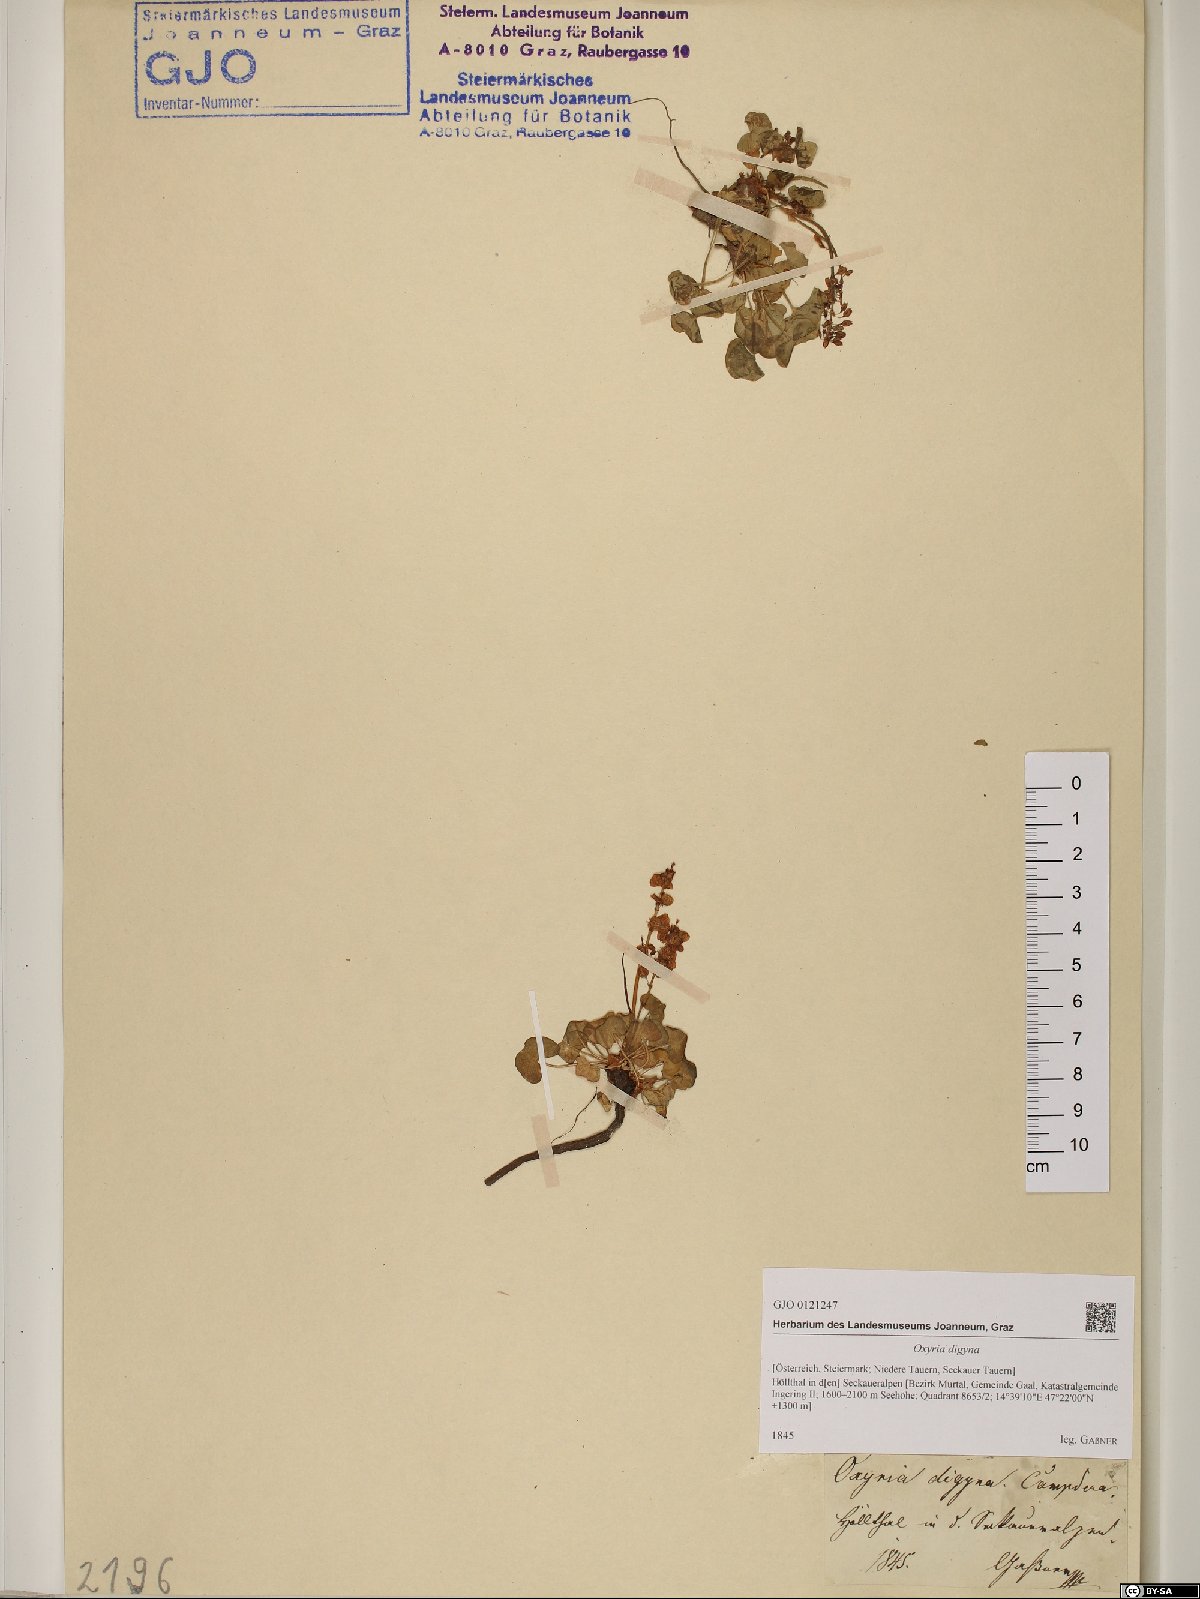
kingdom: Plantae
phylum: Tracheophyta
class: Magnoliopsida
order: Caryophyllales
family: Polygonaceae
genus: Oxyria
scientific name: Oxyria digyna
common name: Alpine mountain-sorrel
